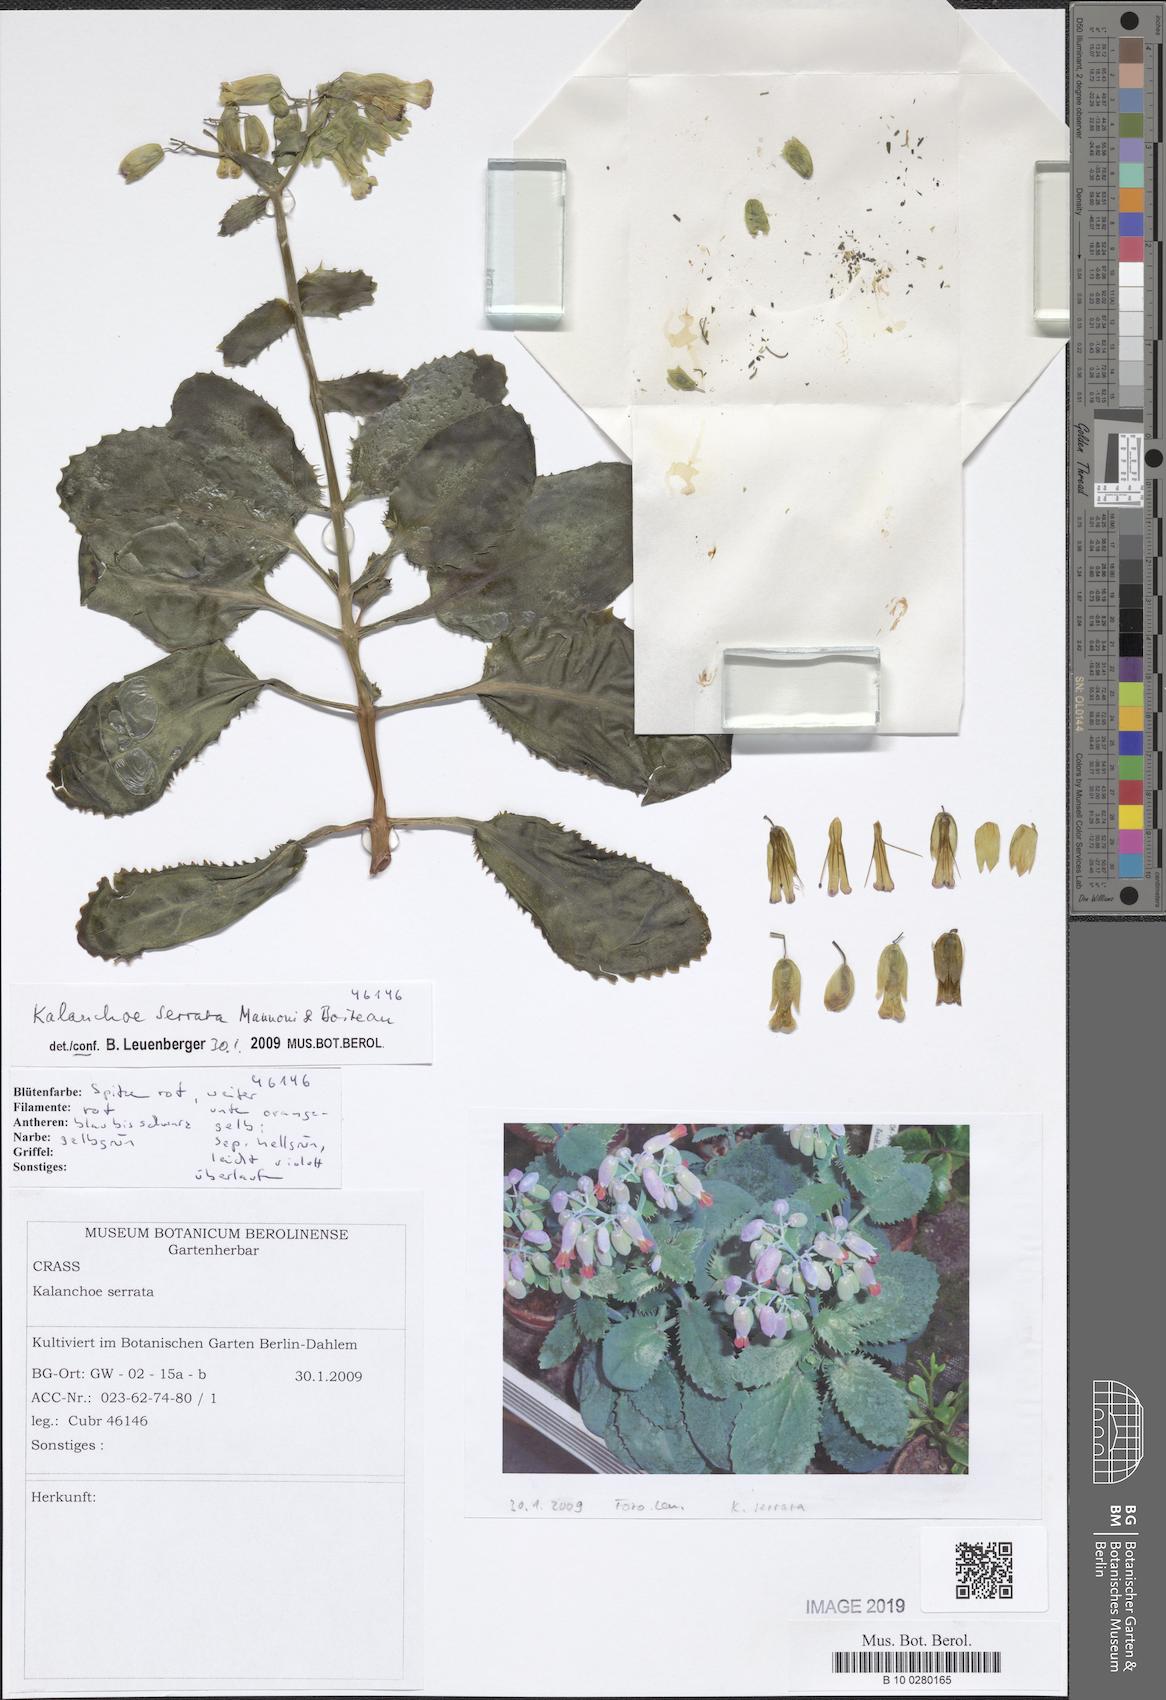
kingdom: Plantae
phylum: Tracheophyta
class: Magnoliopsida
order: Saxifragales
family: Crassulaceae
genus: Kalanchoe
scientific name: Kalanchoe serrata
